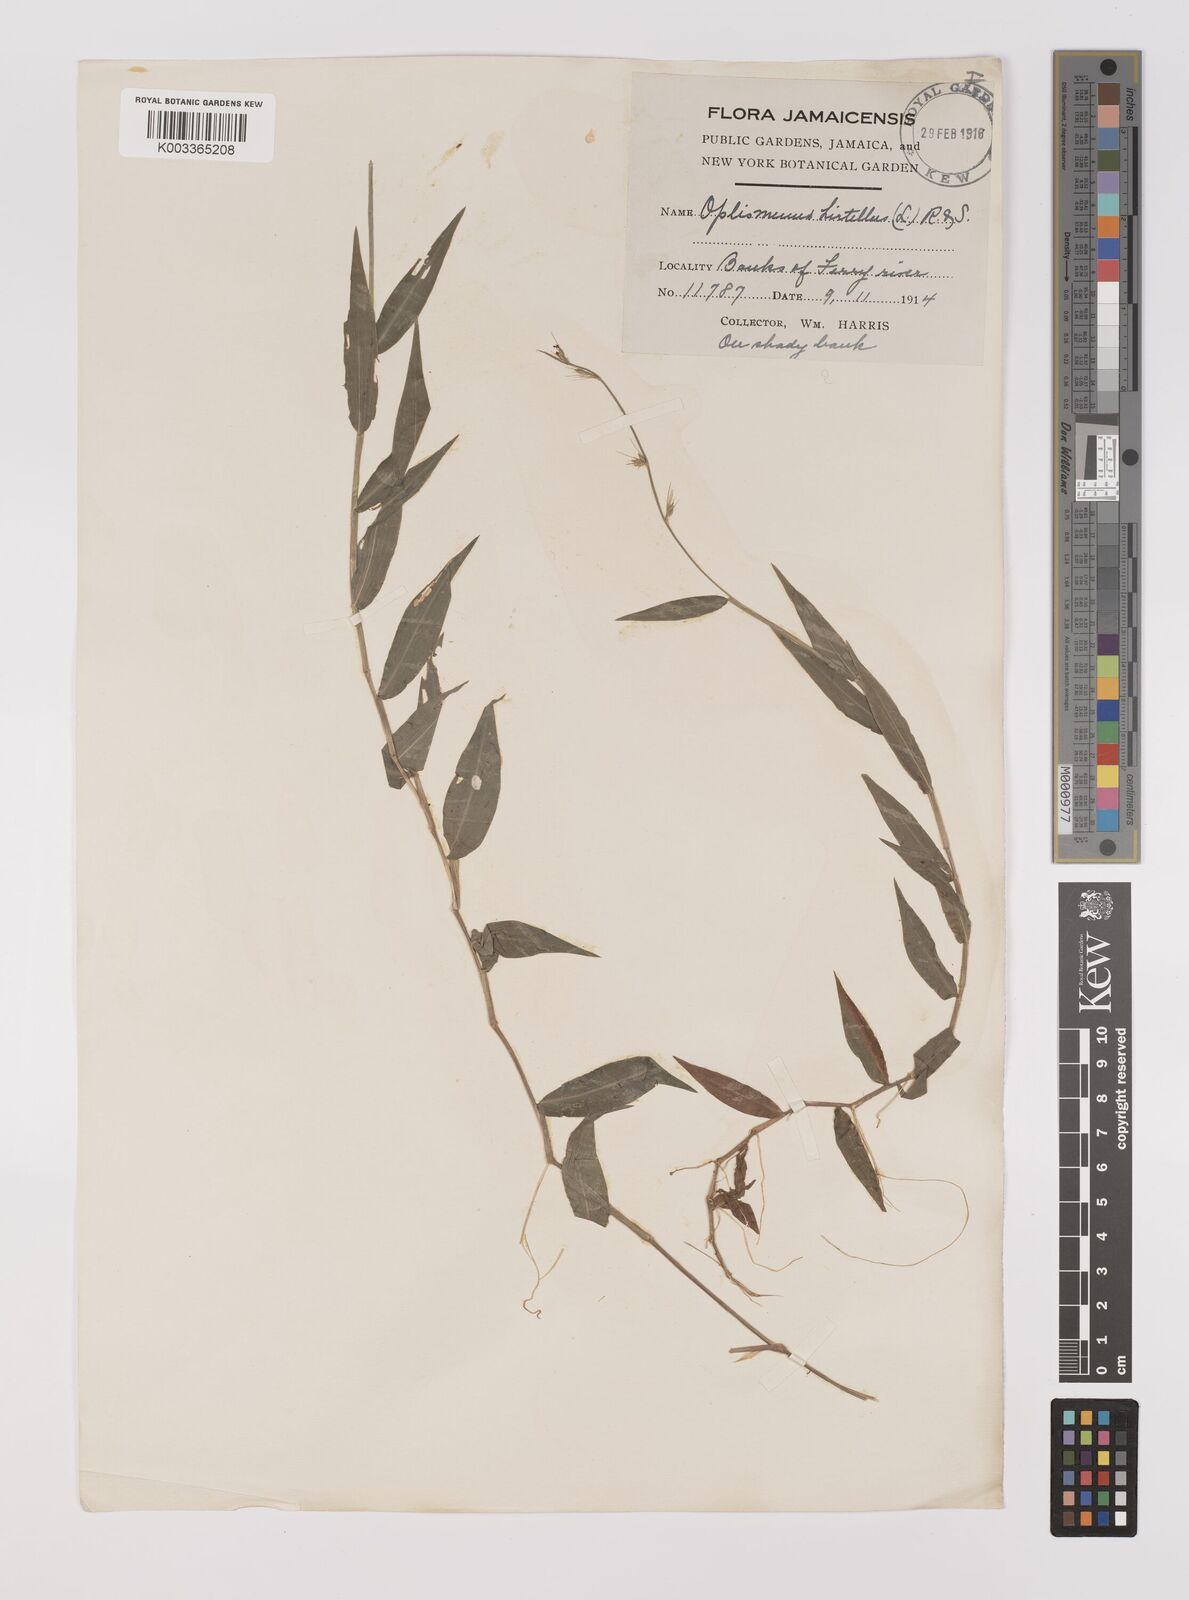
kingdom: Plantae
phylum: Tracheophyta
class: Liliopsida
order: Poales
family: Poaceae
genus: Oplismenus
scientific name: Oplismenus hirtellus
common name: Basketgrass
